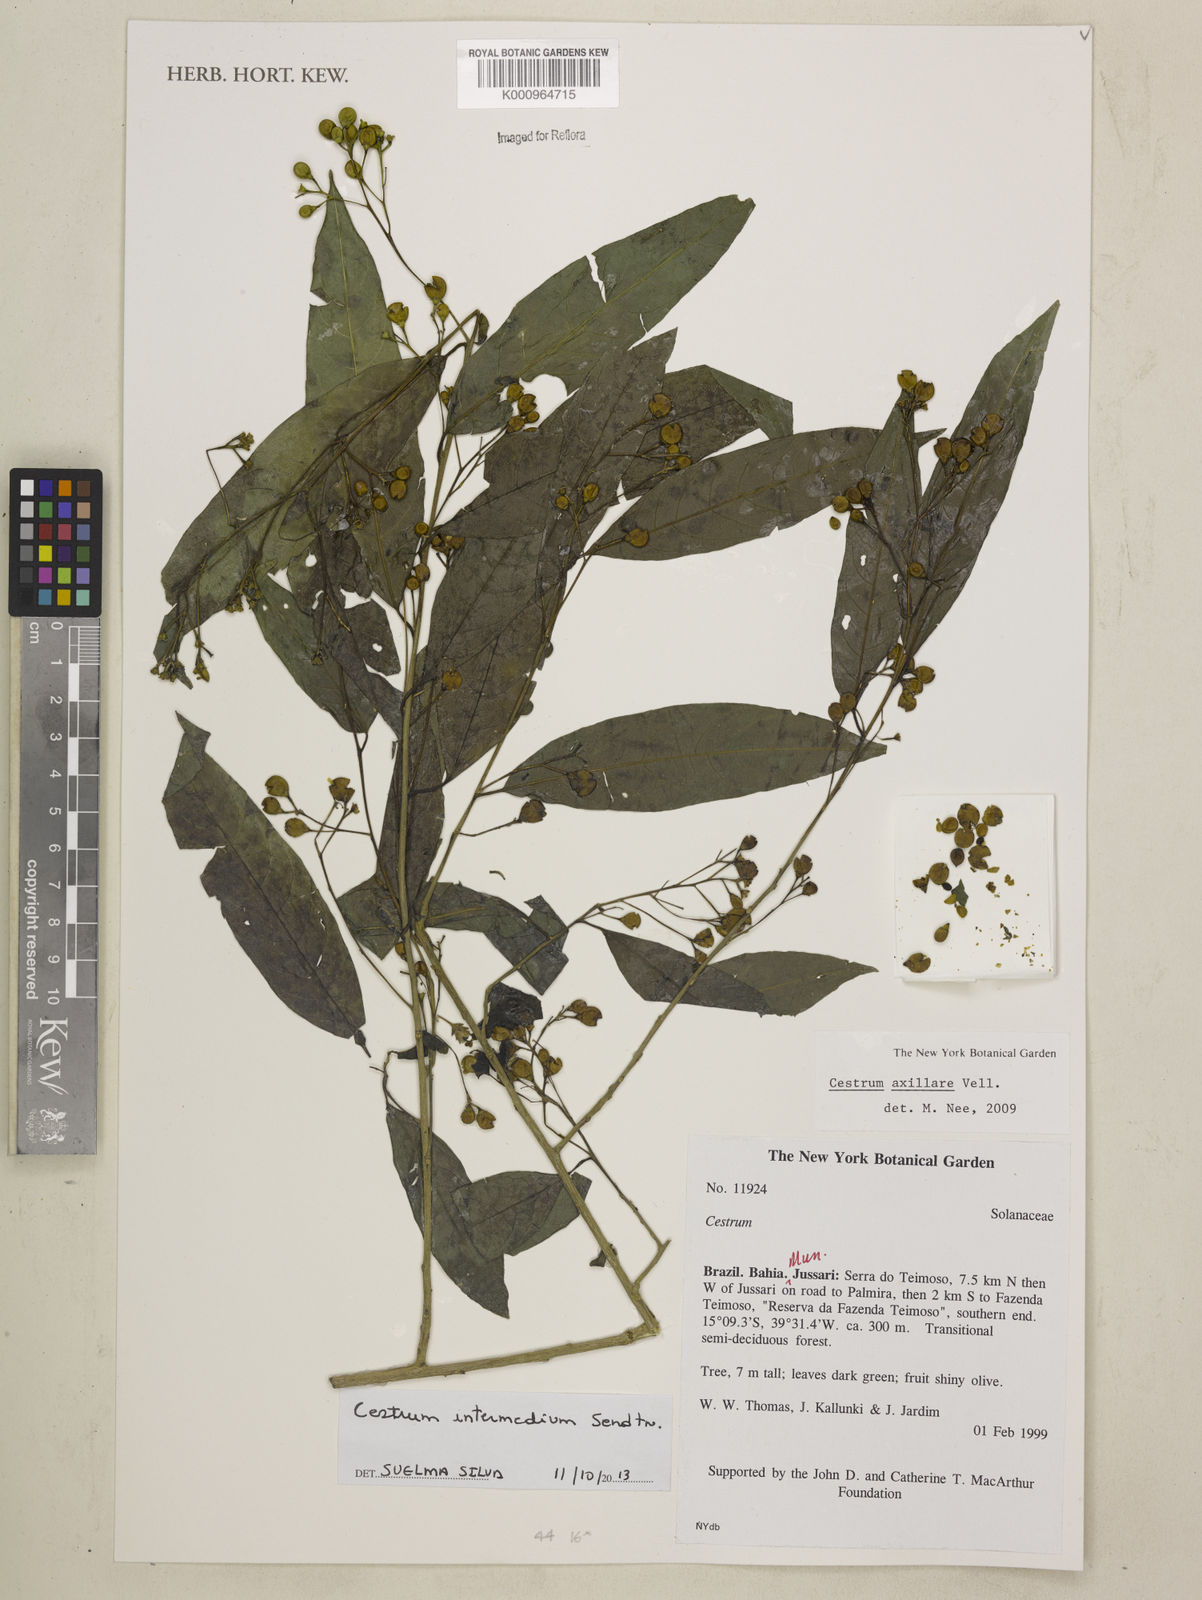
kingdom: Plantae
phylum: Tracheophyta
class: Magnoliopsida
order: Solanales
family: Solanaceae
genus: Cestrum
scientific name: Cestrum intermedium
